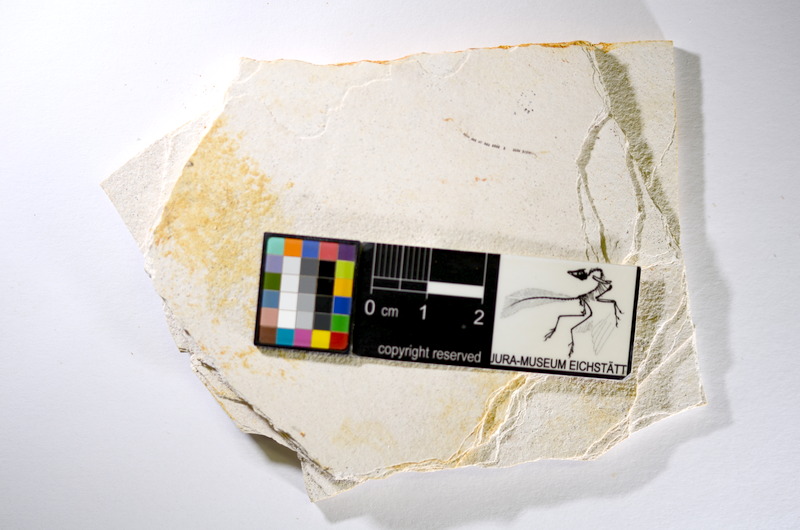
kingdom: Animalia
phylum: Chordata
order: Salmoniformes
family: Orthogonikleithridae
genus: Orthogonikleithrus
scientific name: Orthogonikleithrus hoelli
